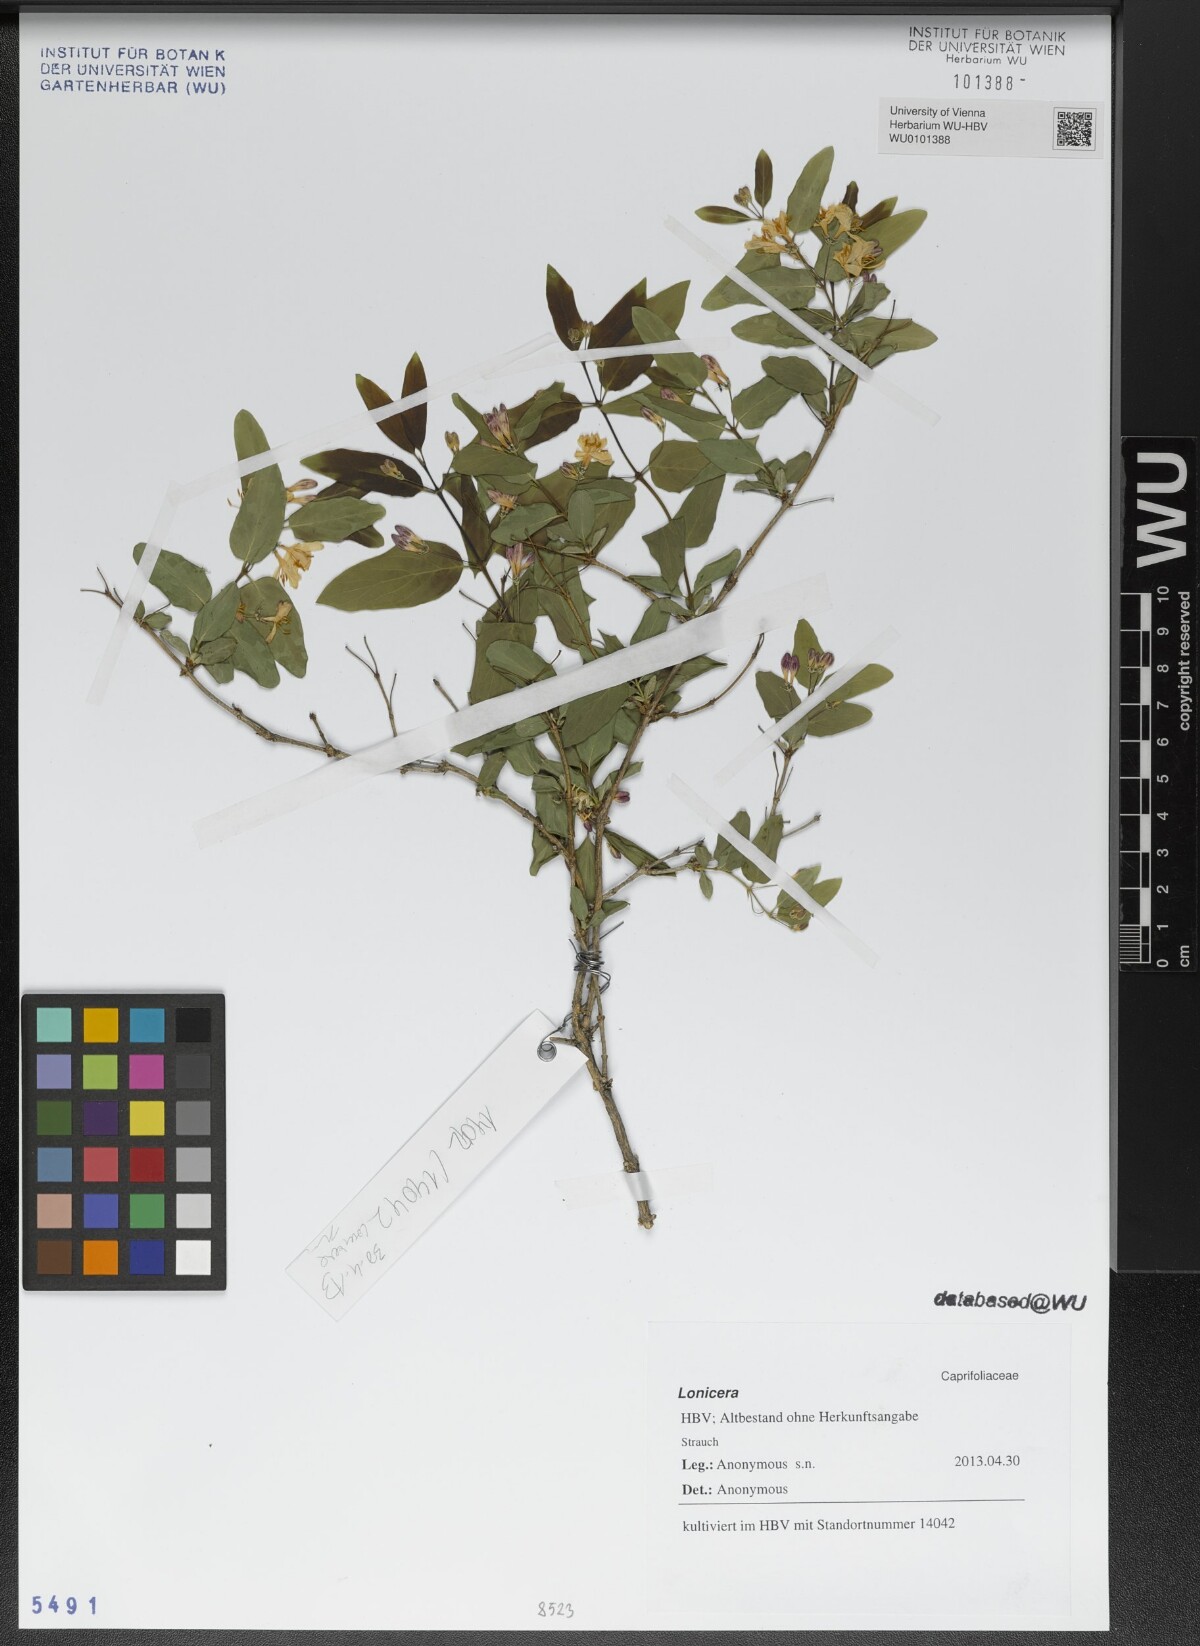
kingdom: Plantae
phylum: Tracheophyta
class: Magnoliopsida
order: Dipsacales
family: Caprifoliaceae
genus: Lonicera
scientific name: Lonicera
